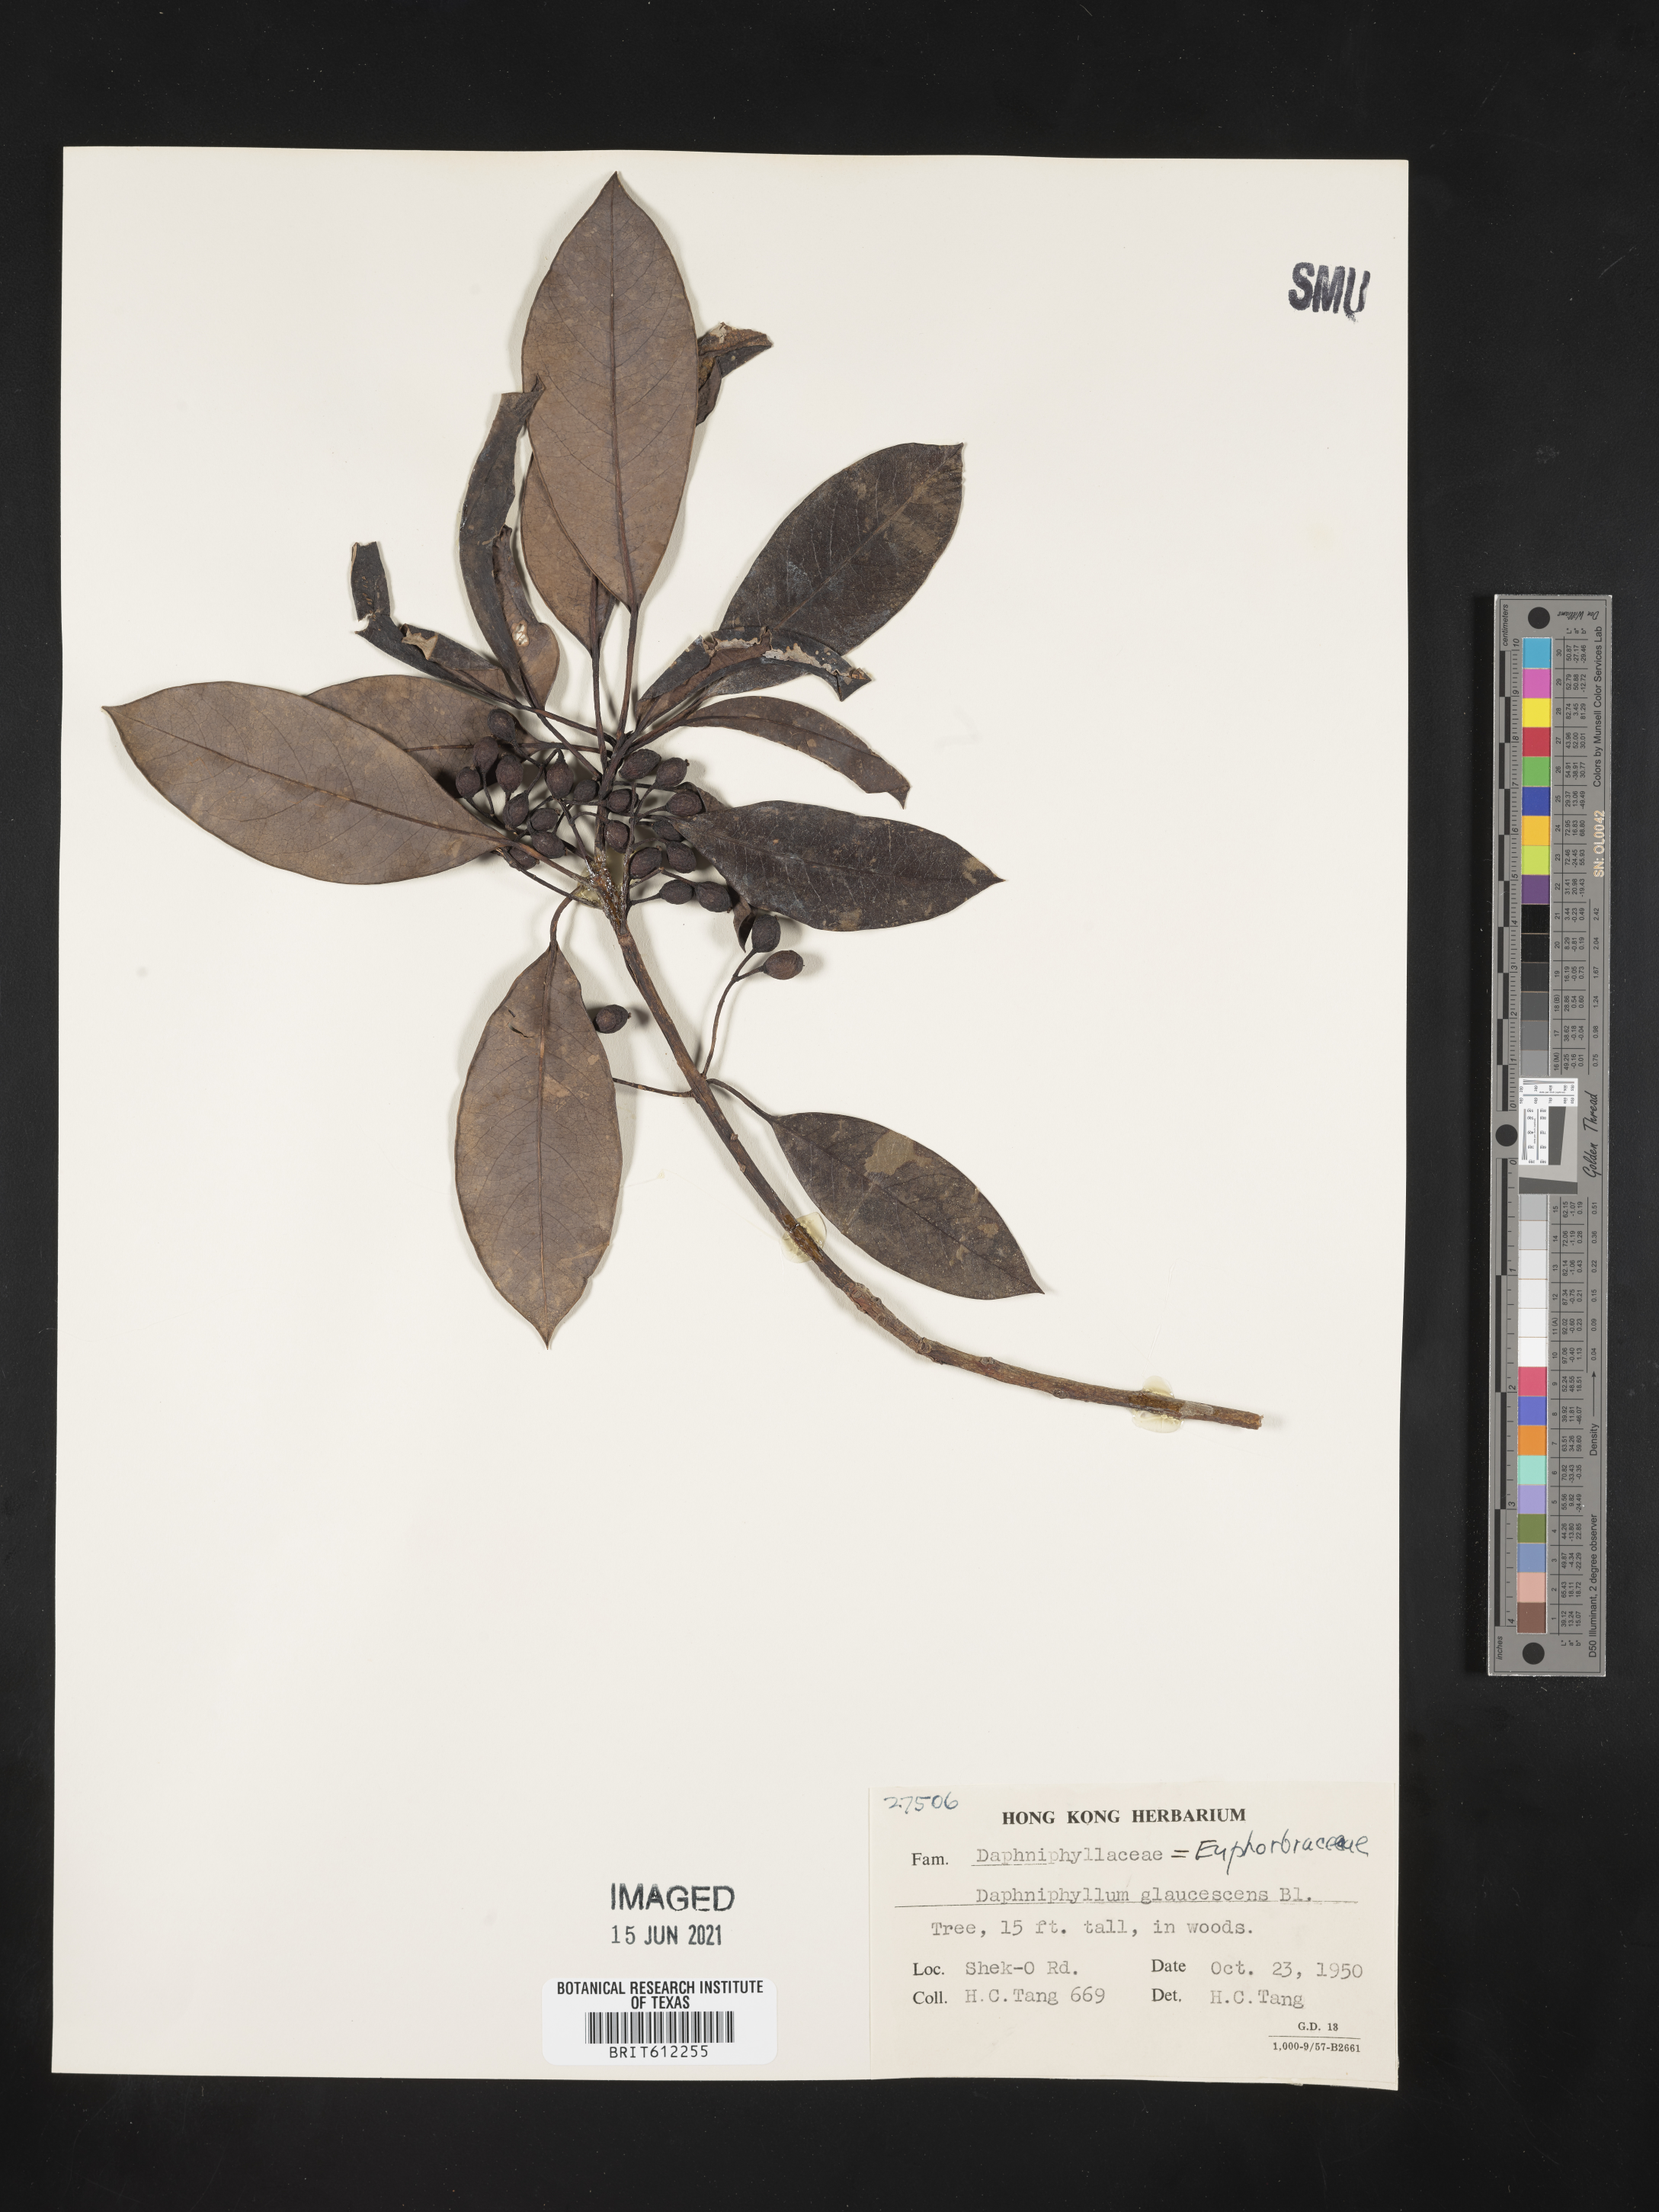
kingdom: Plantae
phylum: Tracheophyta
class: Magnoliopsida
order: Saxifragales
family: Daphniphyllaceae
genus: Daphniphyllum
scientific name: Daphniphyllum glaucescens
